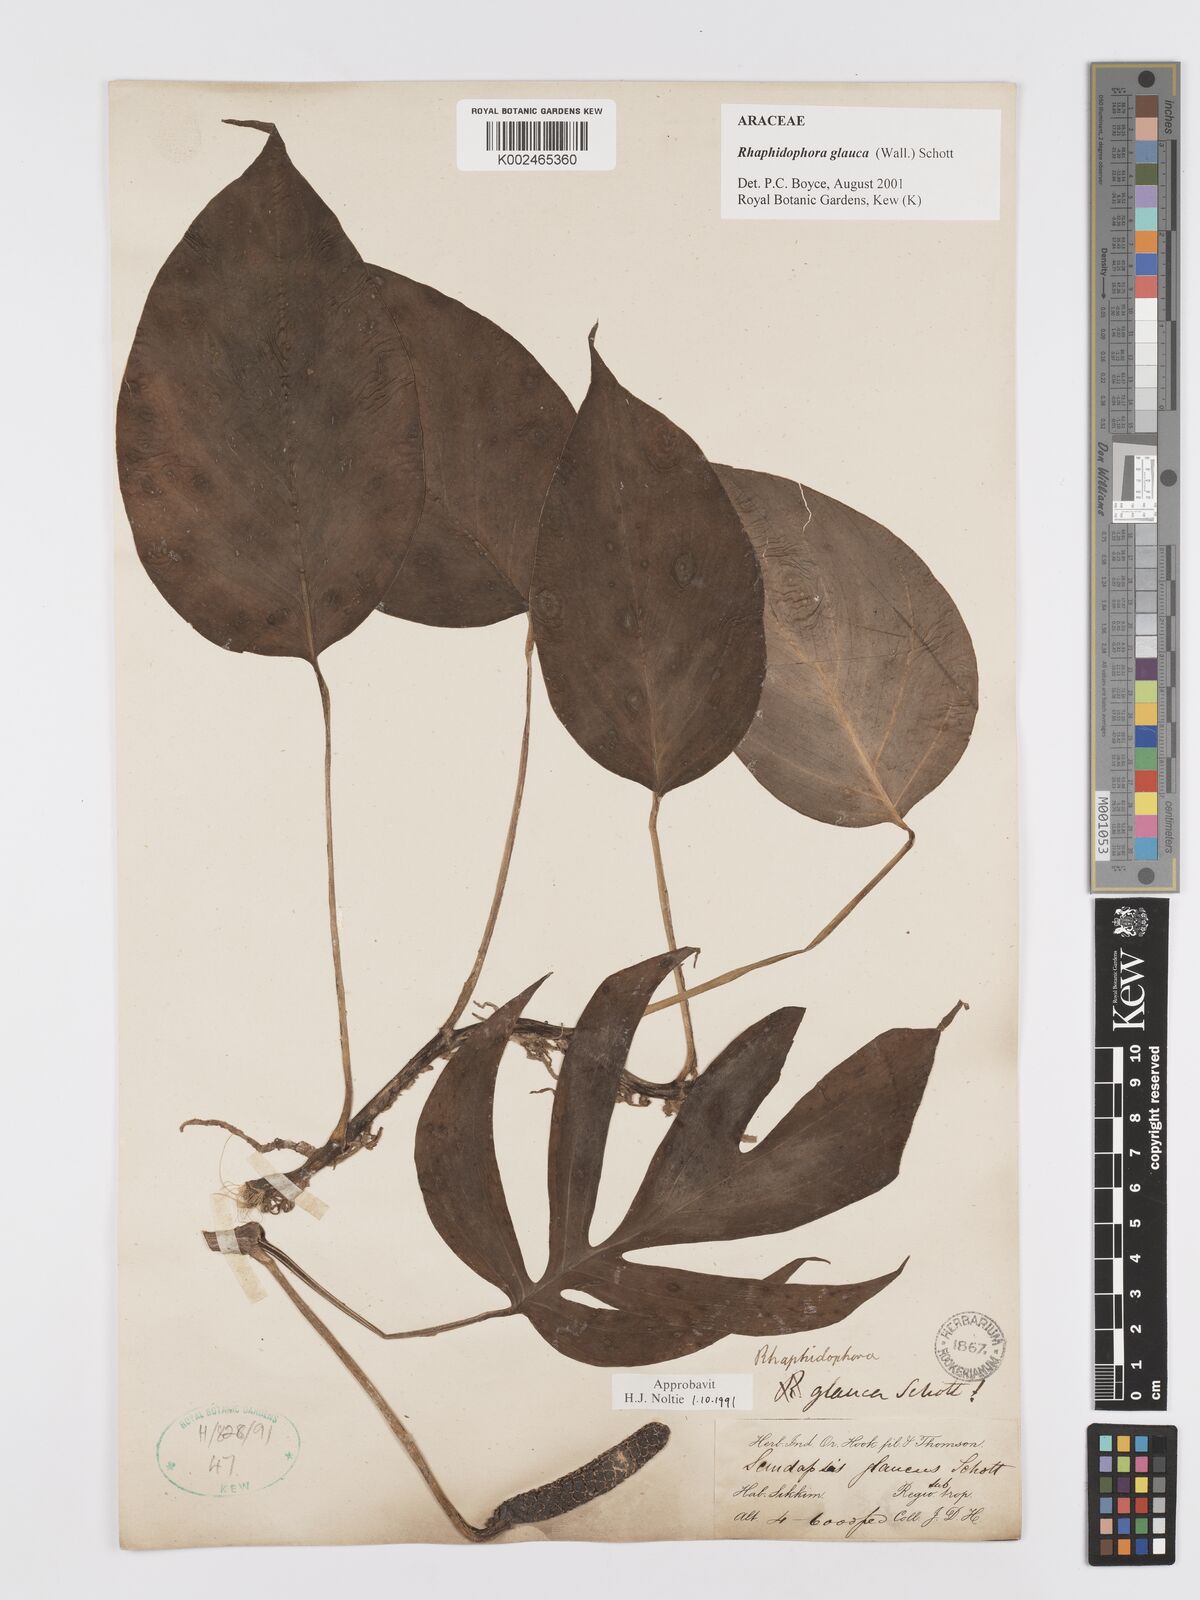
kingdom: Plantae
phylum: Tracheophyta
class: Liliopsida
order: Alismatales
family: Araceae
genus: Rhaphidophora
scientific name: Rhaphidophora glauca
